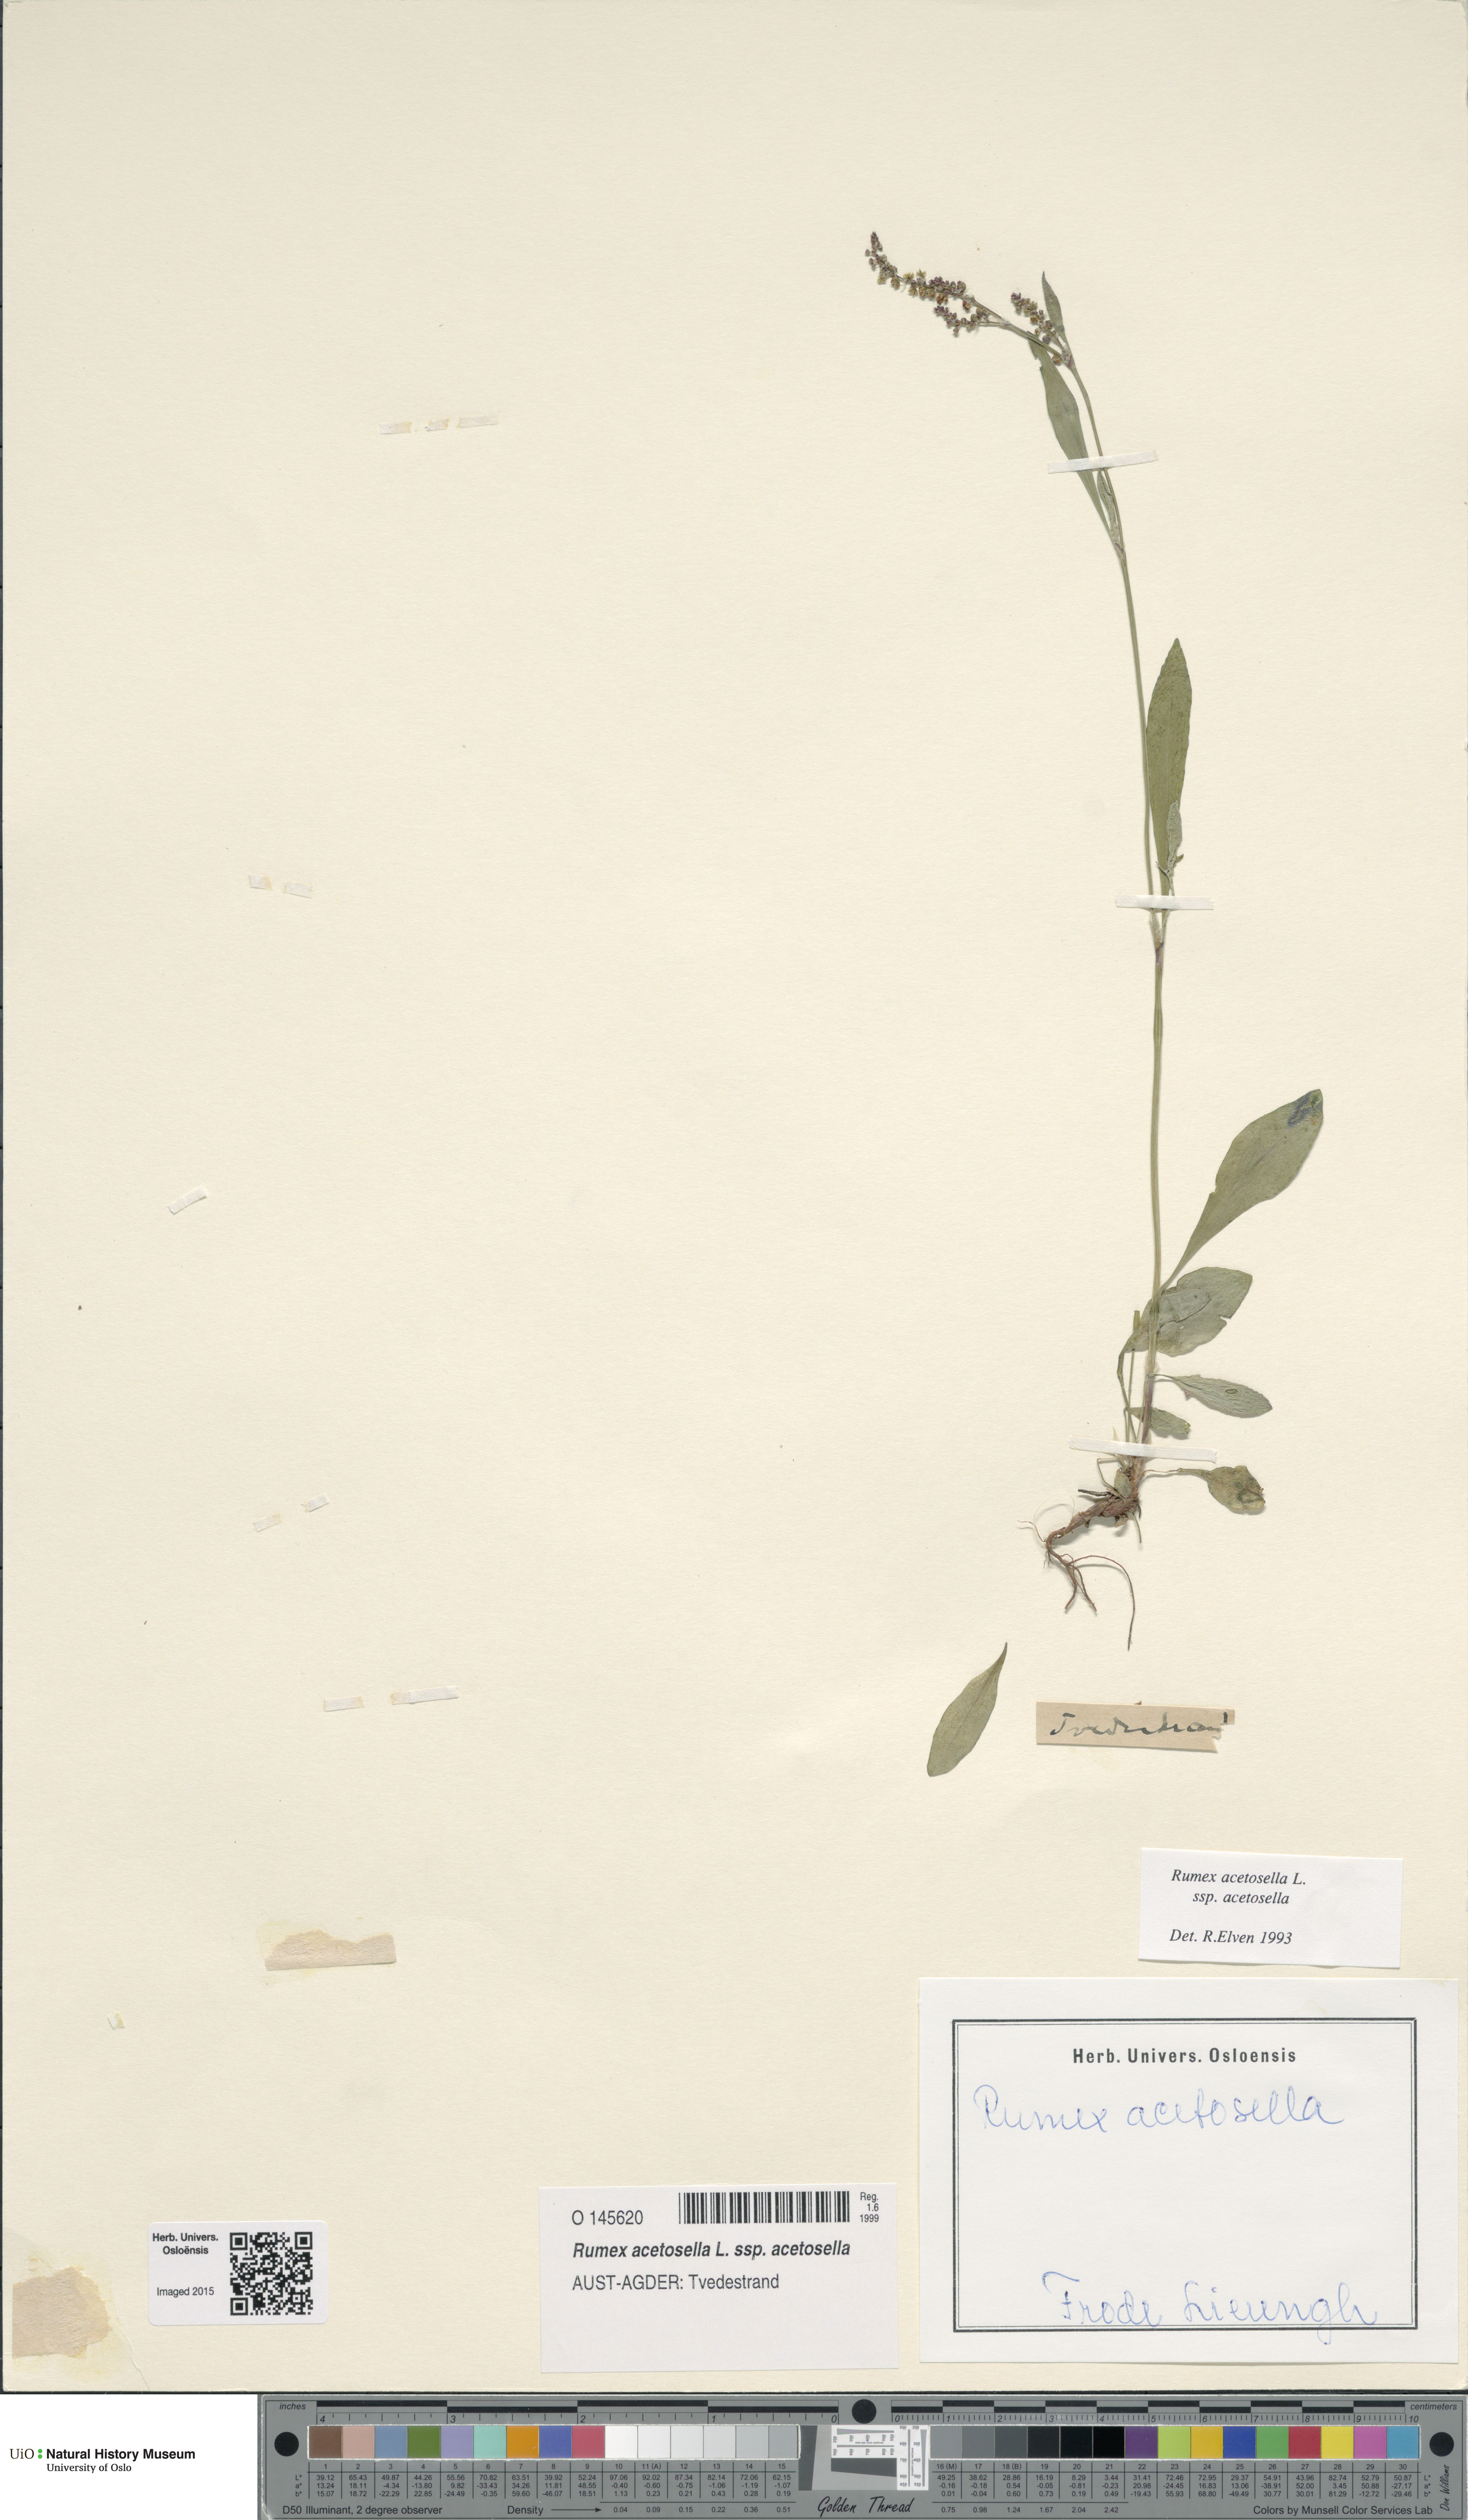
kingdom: Plantae
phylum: Tracheophyta
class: Magnoliopsida
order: Caryophyllales
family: Polygonaceae
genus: Rumex
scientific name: Rumex acetosella
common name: Common sheep sorrel
